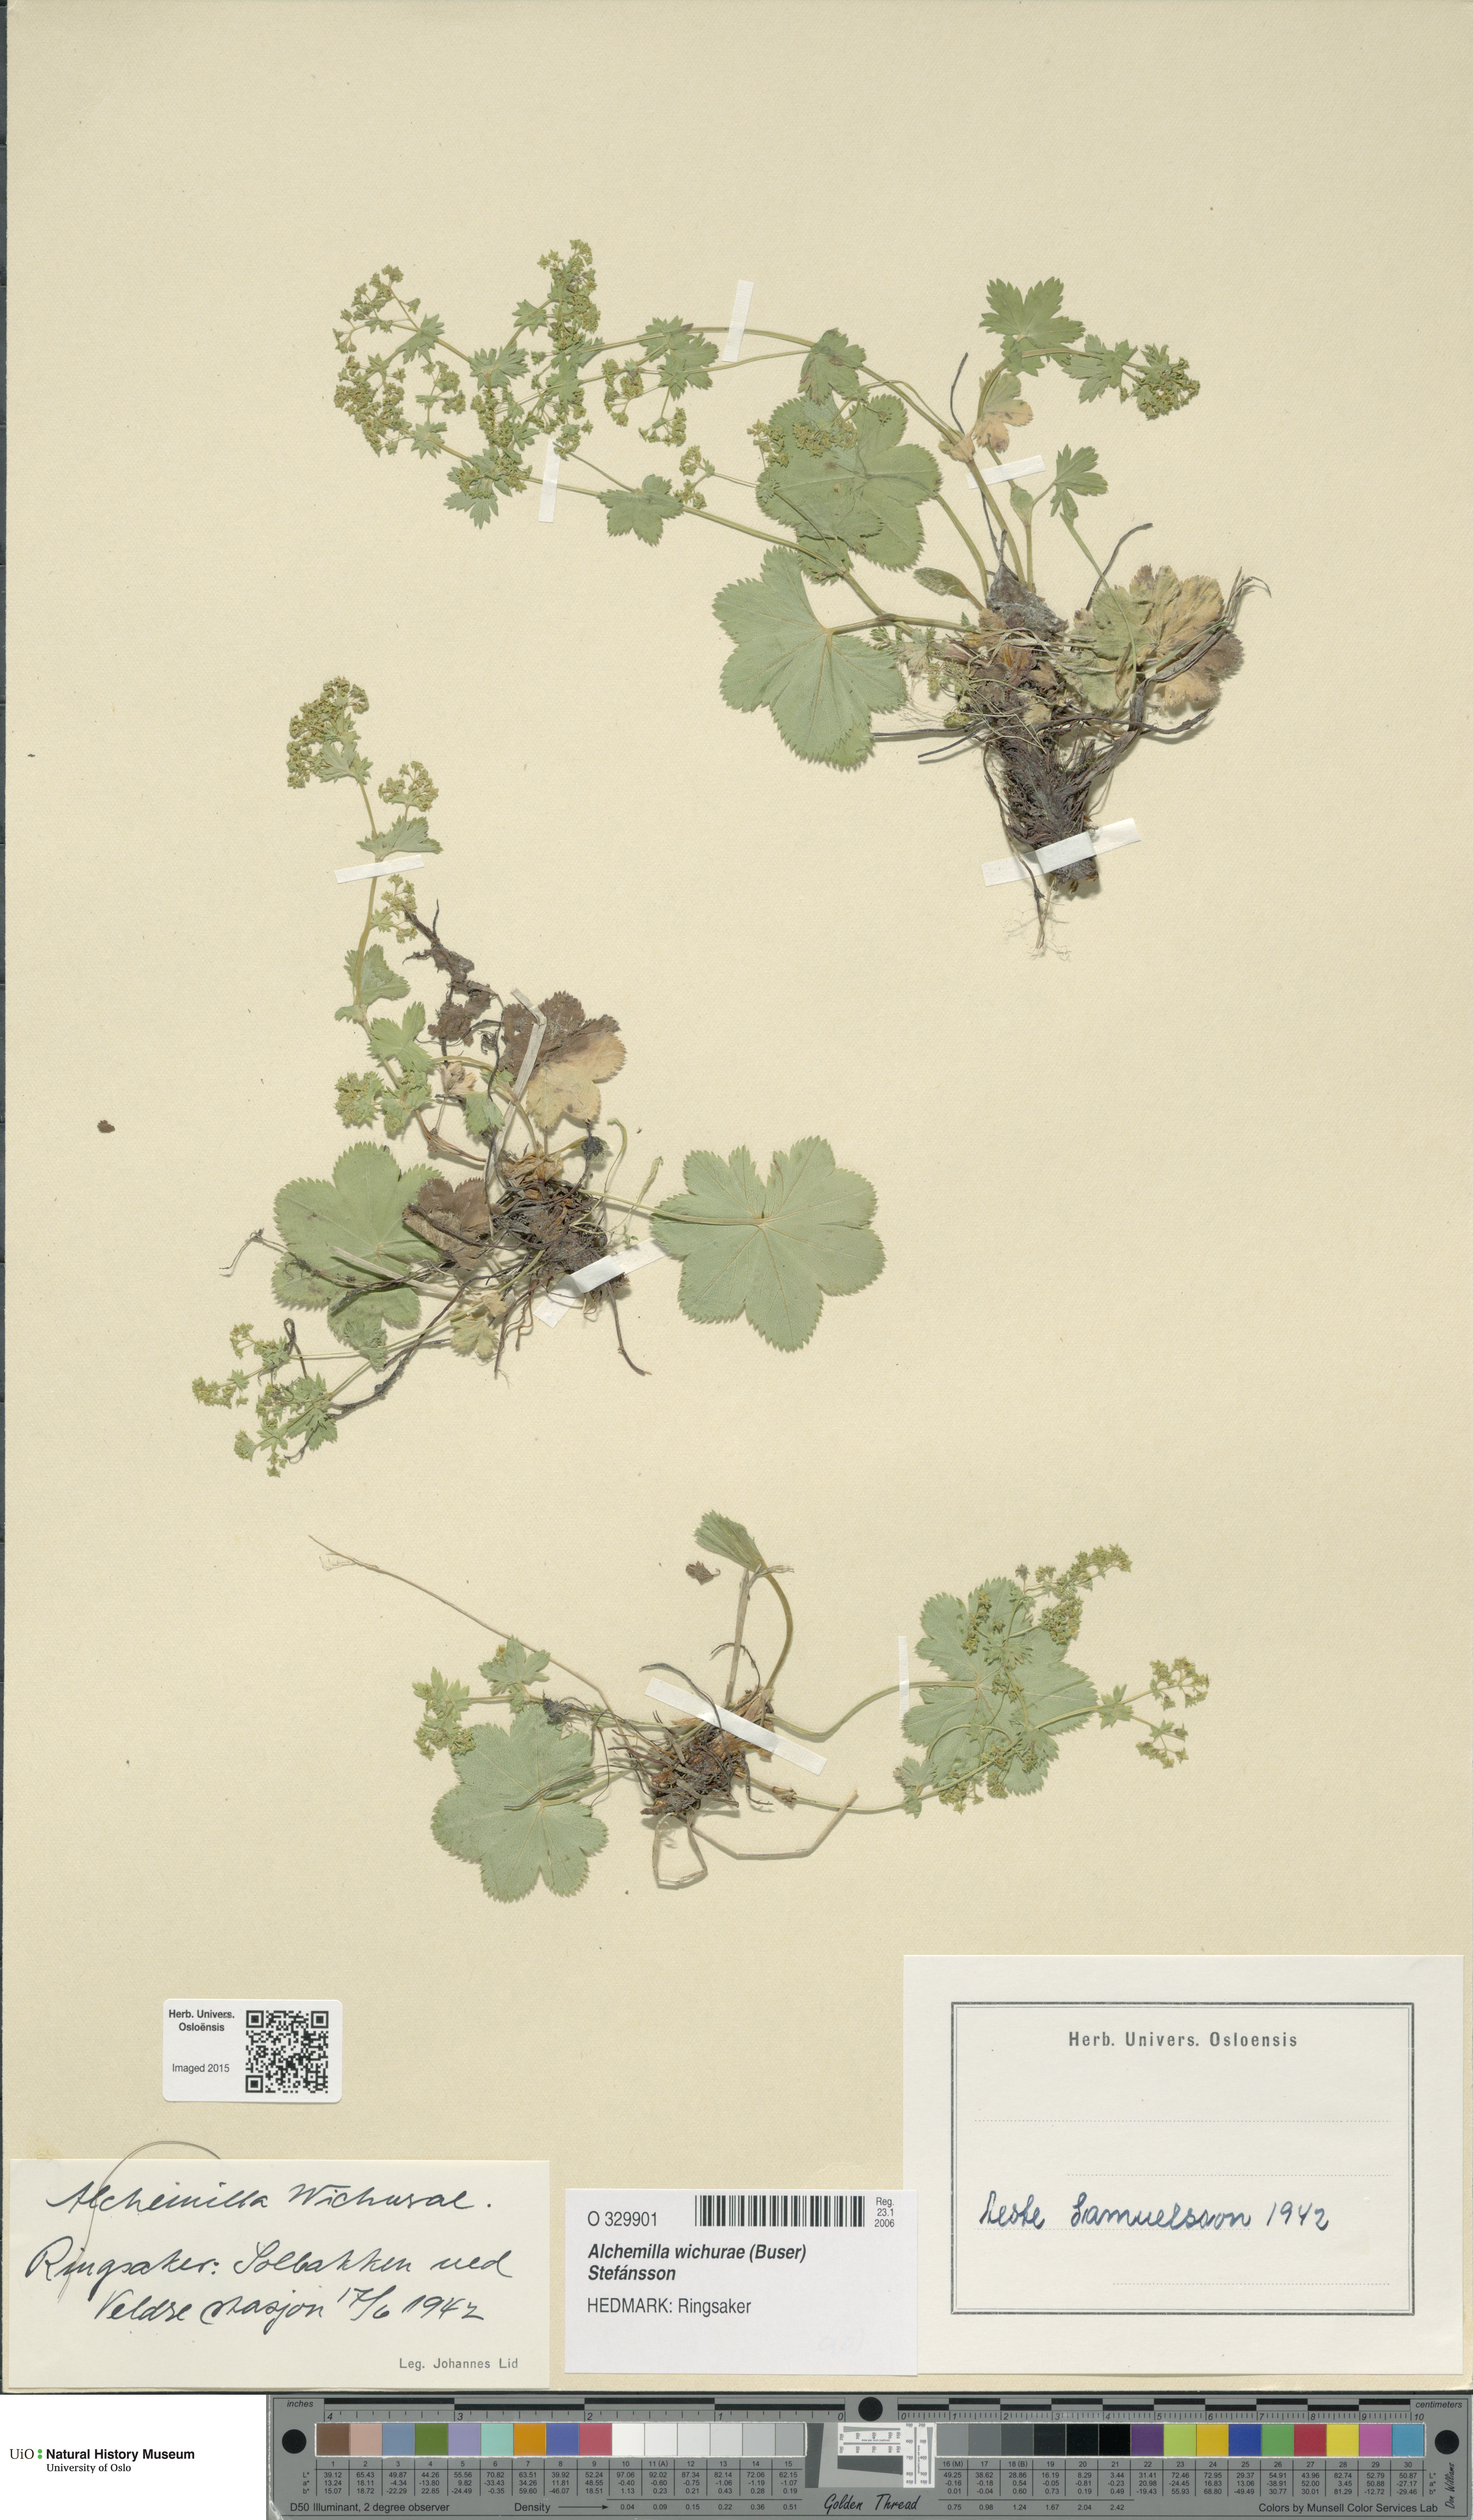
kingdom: Plantae
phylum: Tracheophyta
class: Magnoliopsida
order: Rosales
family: Rosaceae
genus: Alchemilla
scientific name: Alchemilla wichurae
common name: Rock lady's mantle
